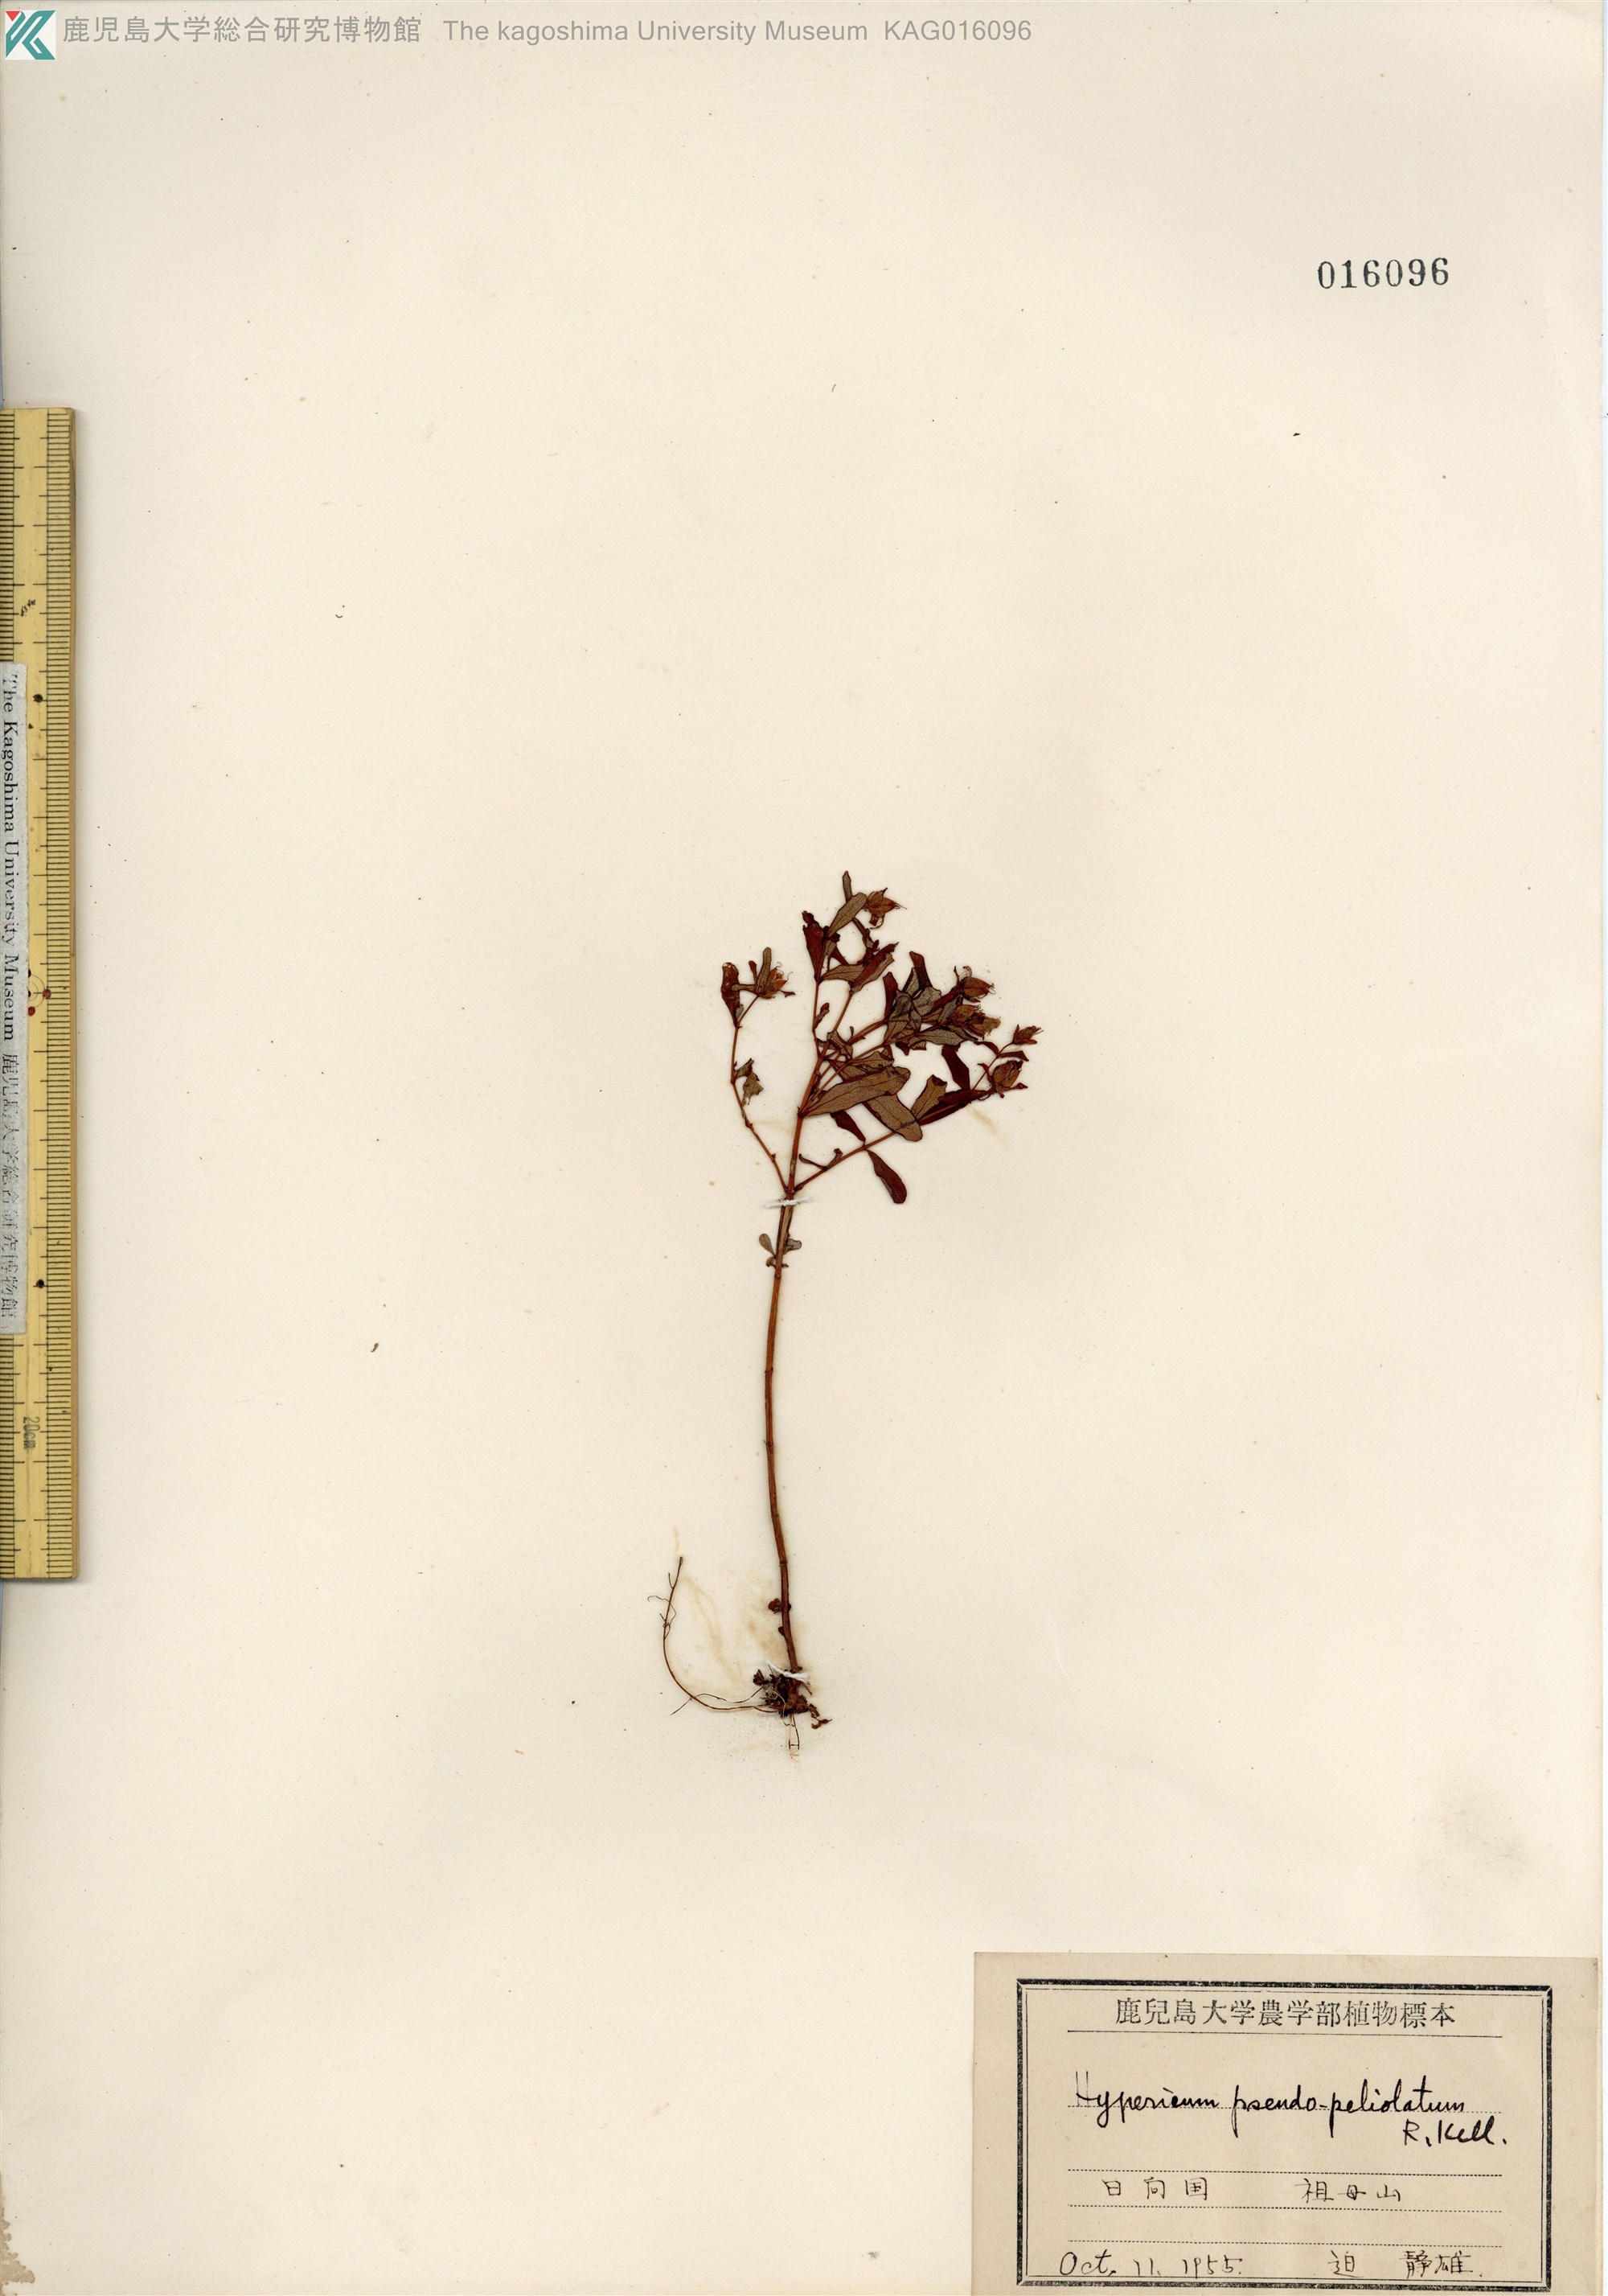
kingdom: Plantae
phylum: Tracheophyta
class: Magnoliopsida
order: Malpighiales
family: Hypericaceae
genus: Hypericum
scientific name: Hypericum pseudopetiolatum
